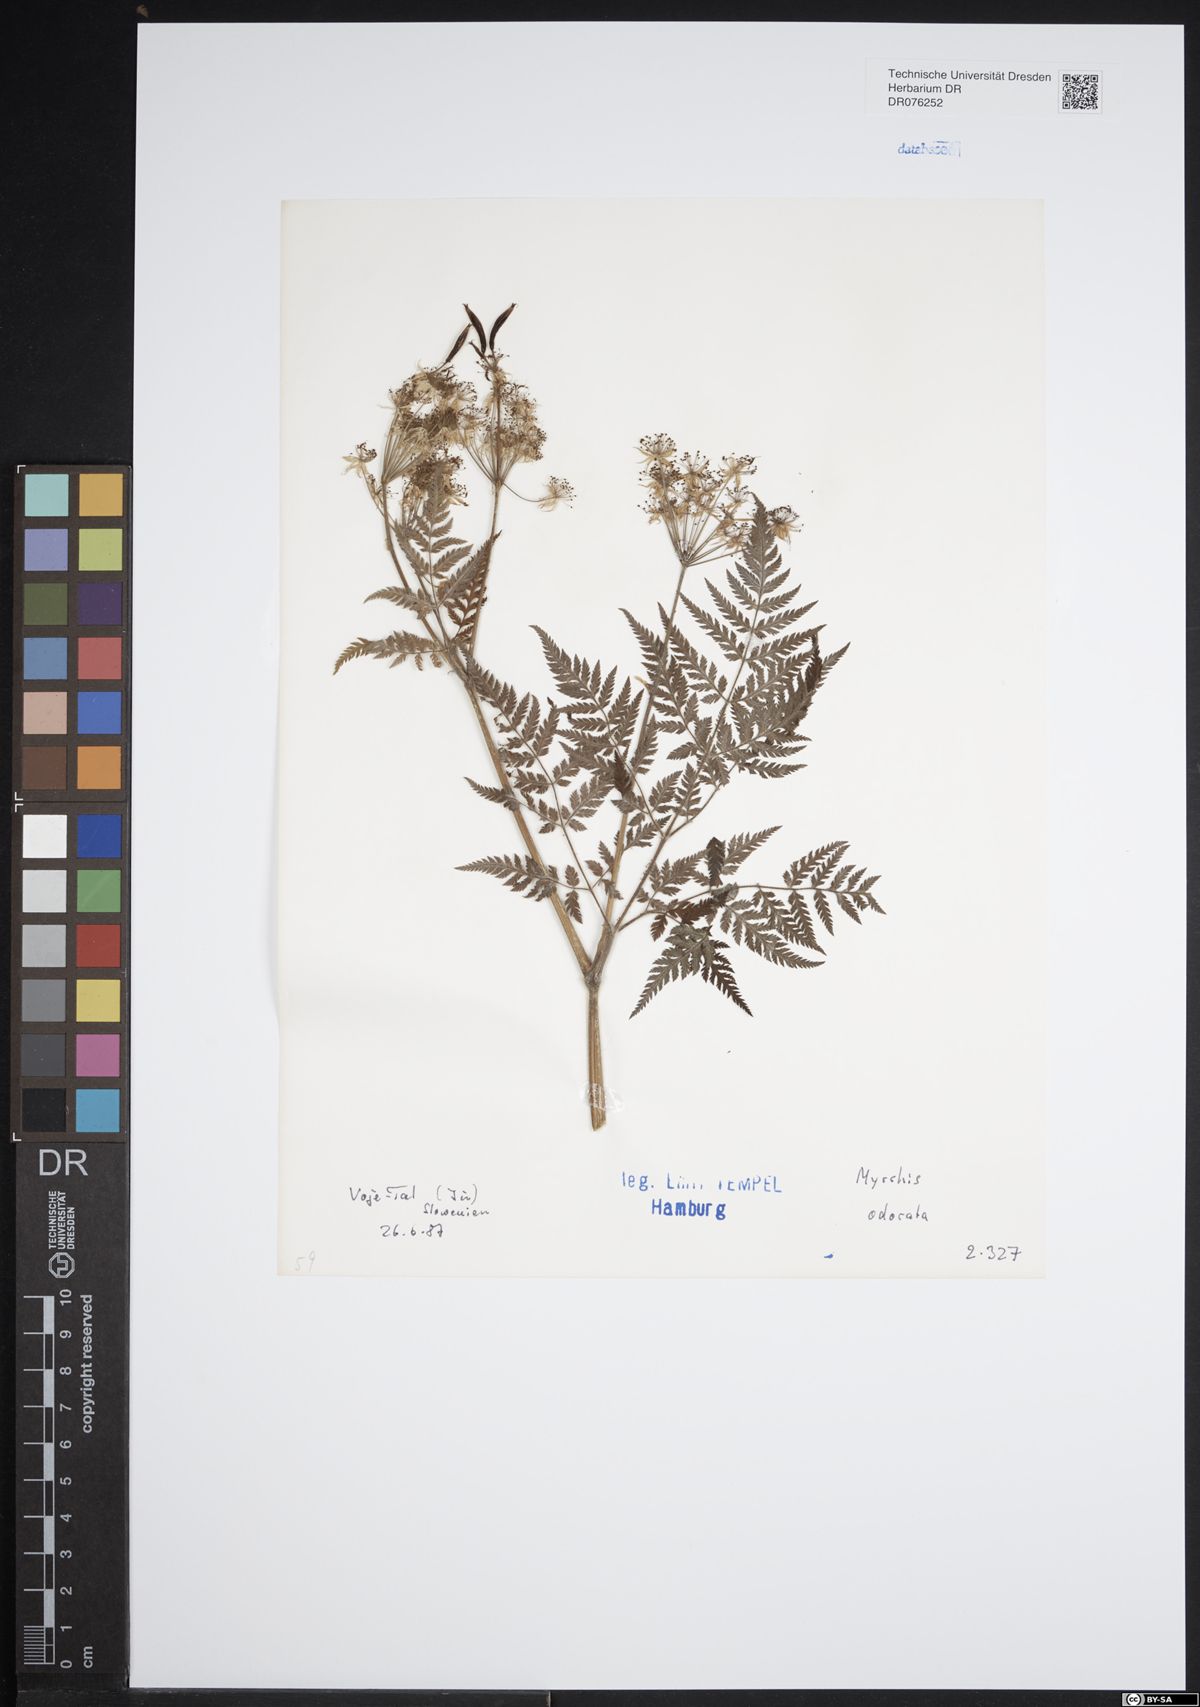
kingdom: Plantae
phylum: Tracheophyta
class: Magnoliopsida
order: Apiales
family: Apiaceae
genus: Myrrhis
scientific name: Myrrhis odorata
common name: Sweet cicely
